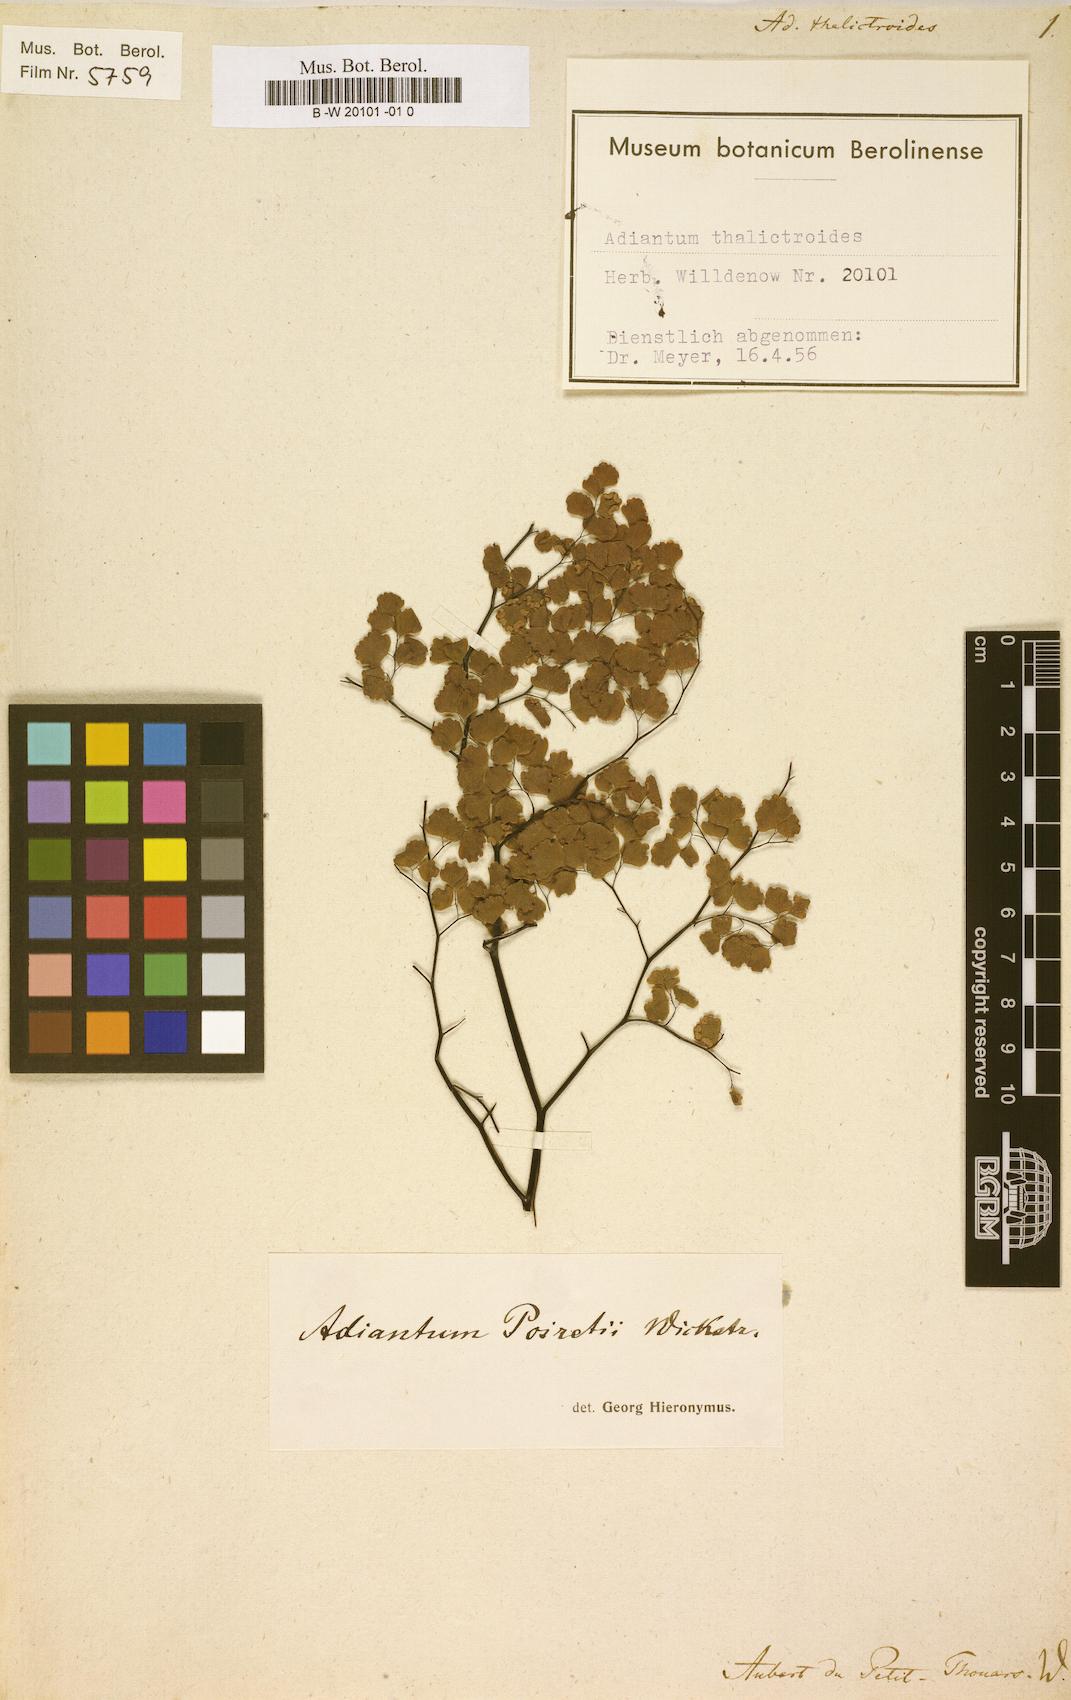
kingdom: Plantae
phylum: Tracheophyta
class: Polypodiopsida
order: Polypodiales
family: Pteridaceae
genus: Adiantum
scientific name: Adiantum thalictroides
